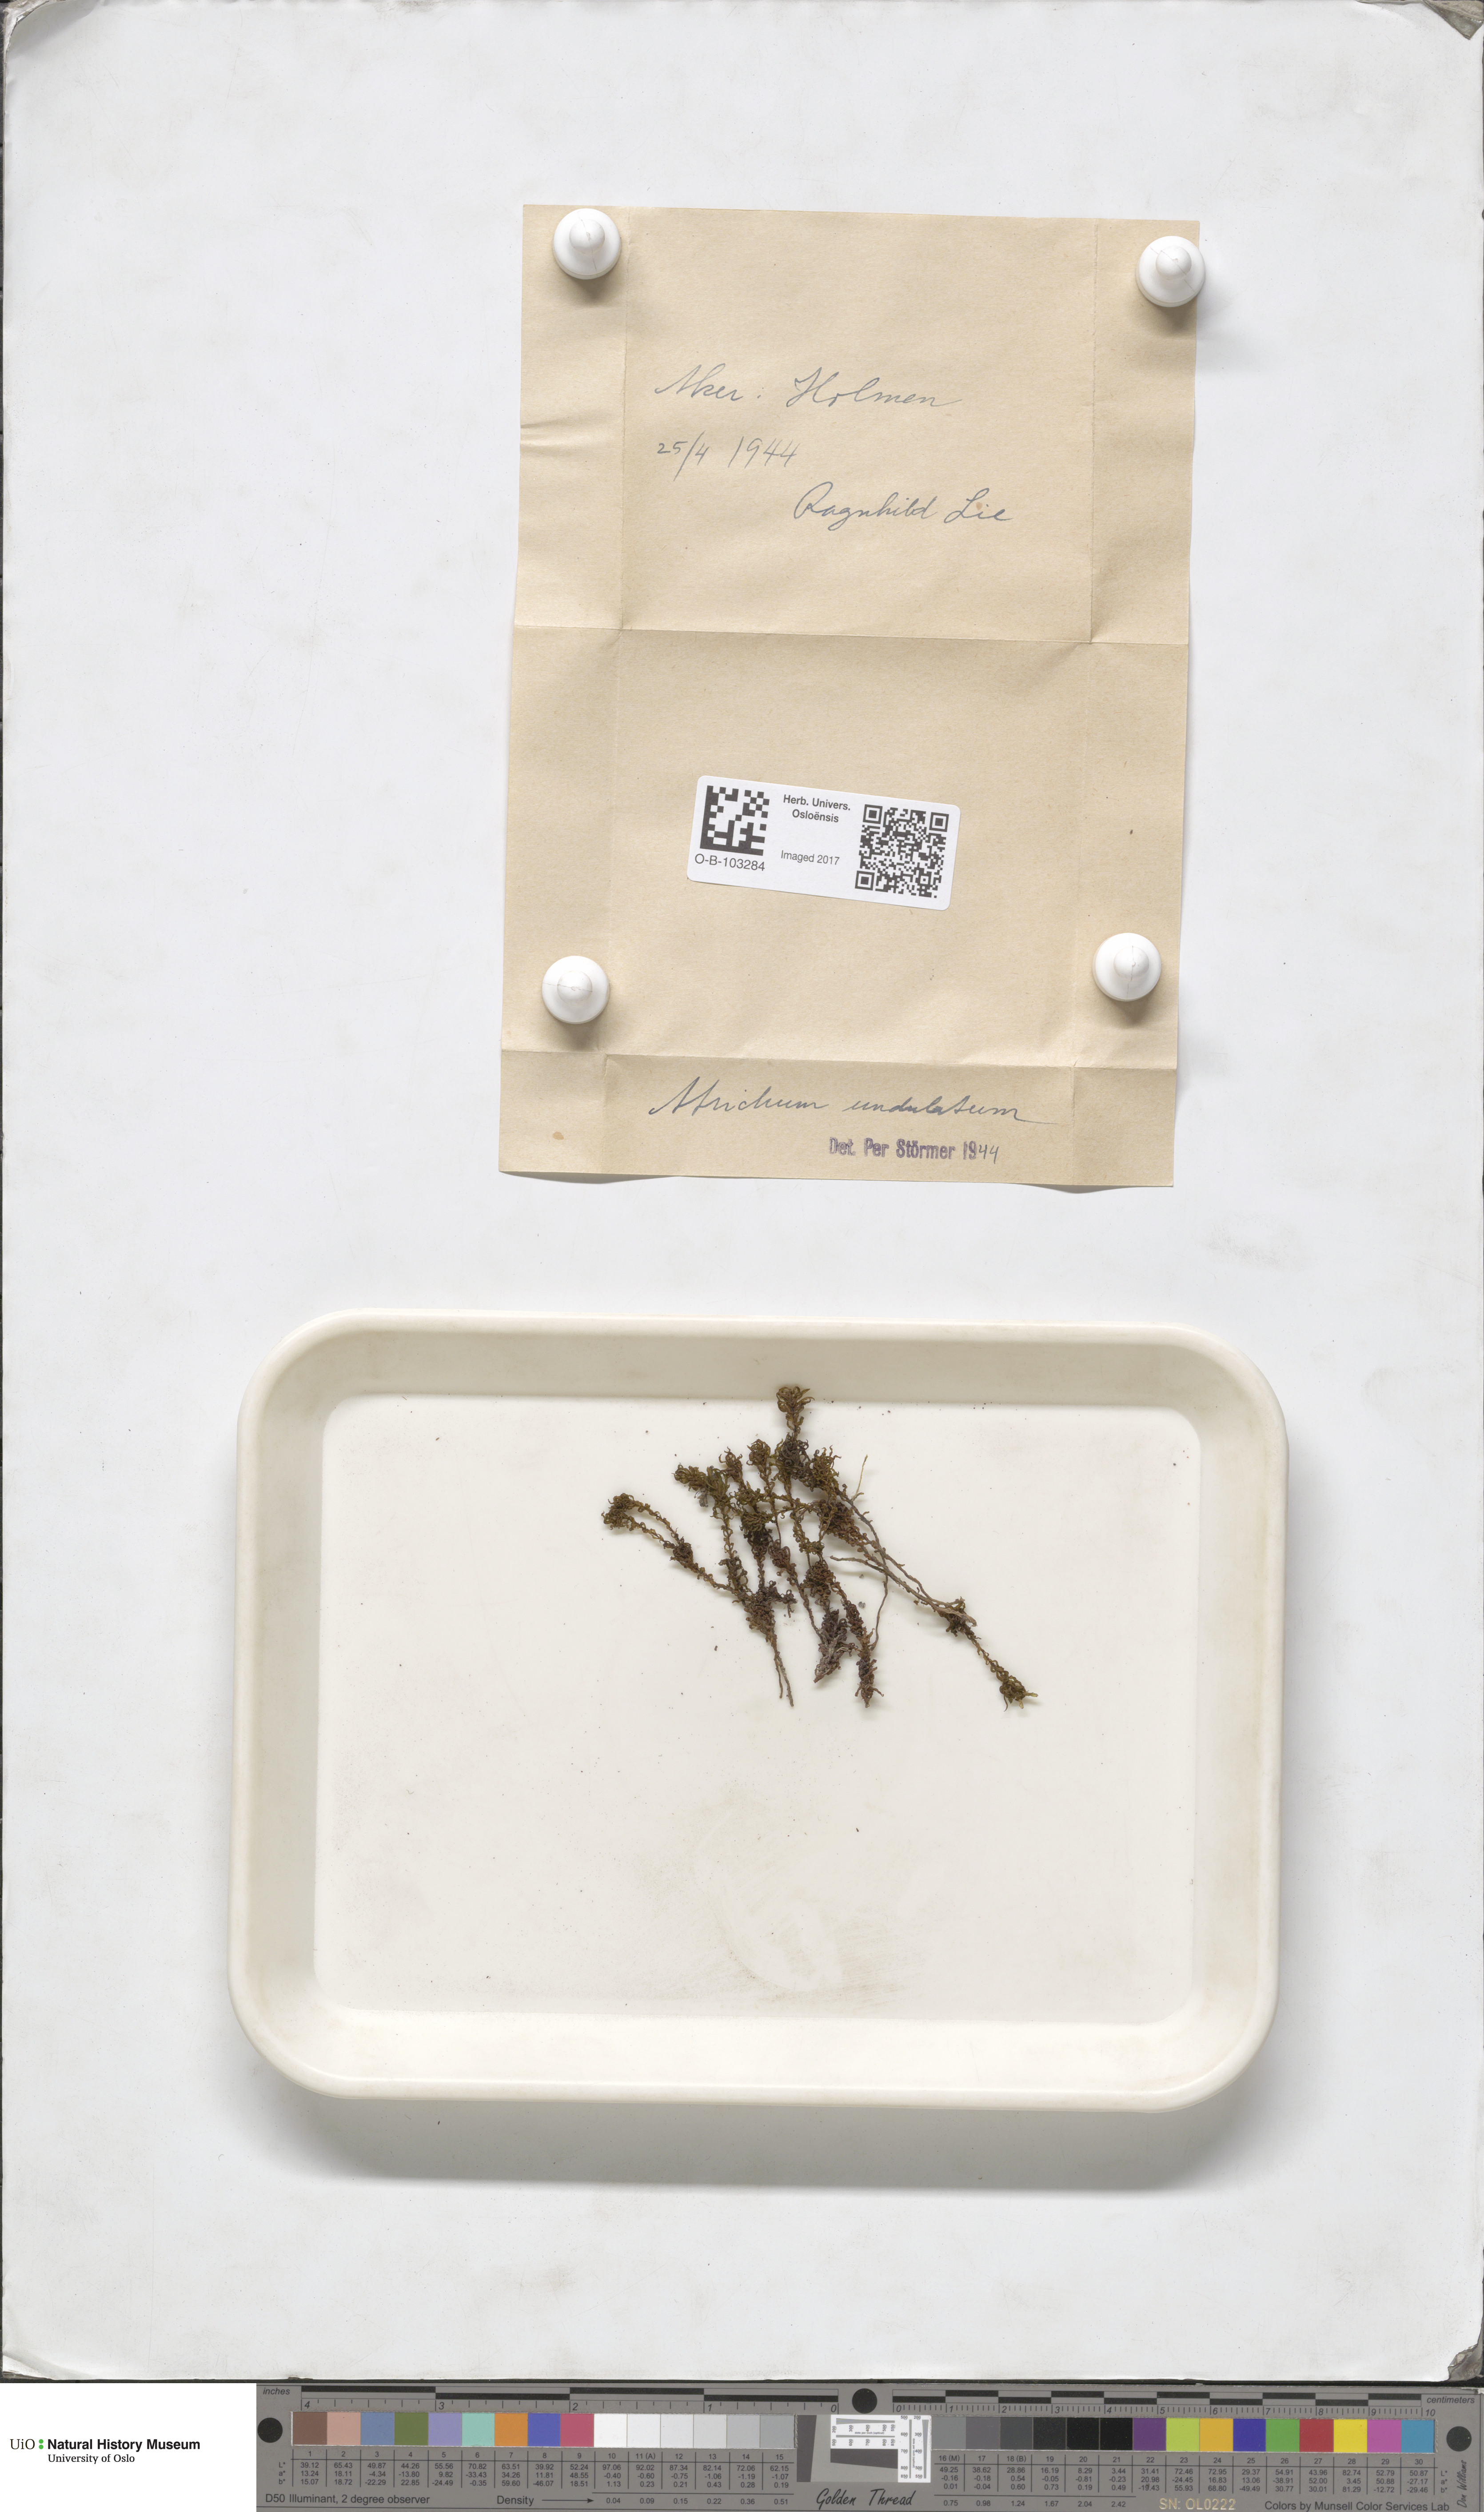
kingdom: Plantae
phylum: Bryophyta
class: Polytrichopsida
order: Polytrichales
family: Polytrichaceae
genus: Atrichum
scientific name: Atrichum undulatum
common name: Common smoothcap
